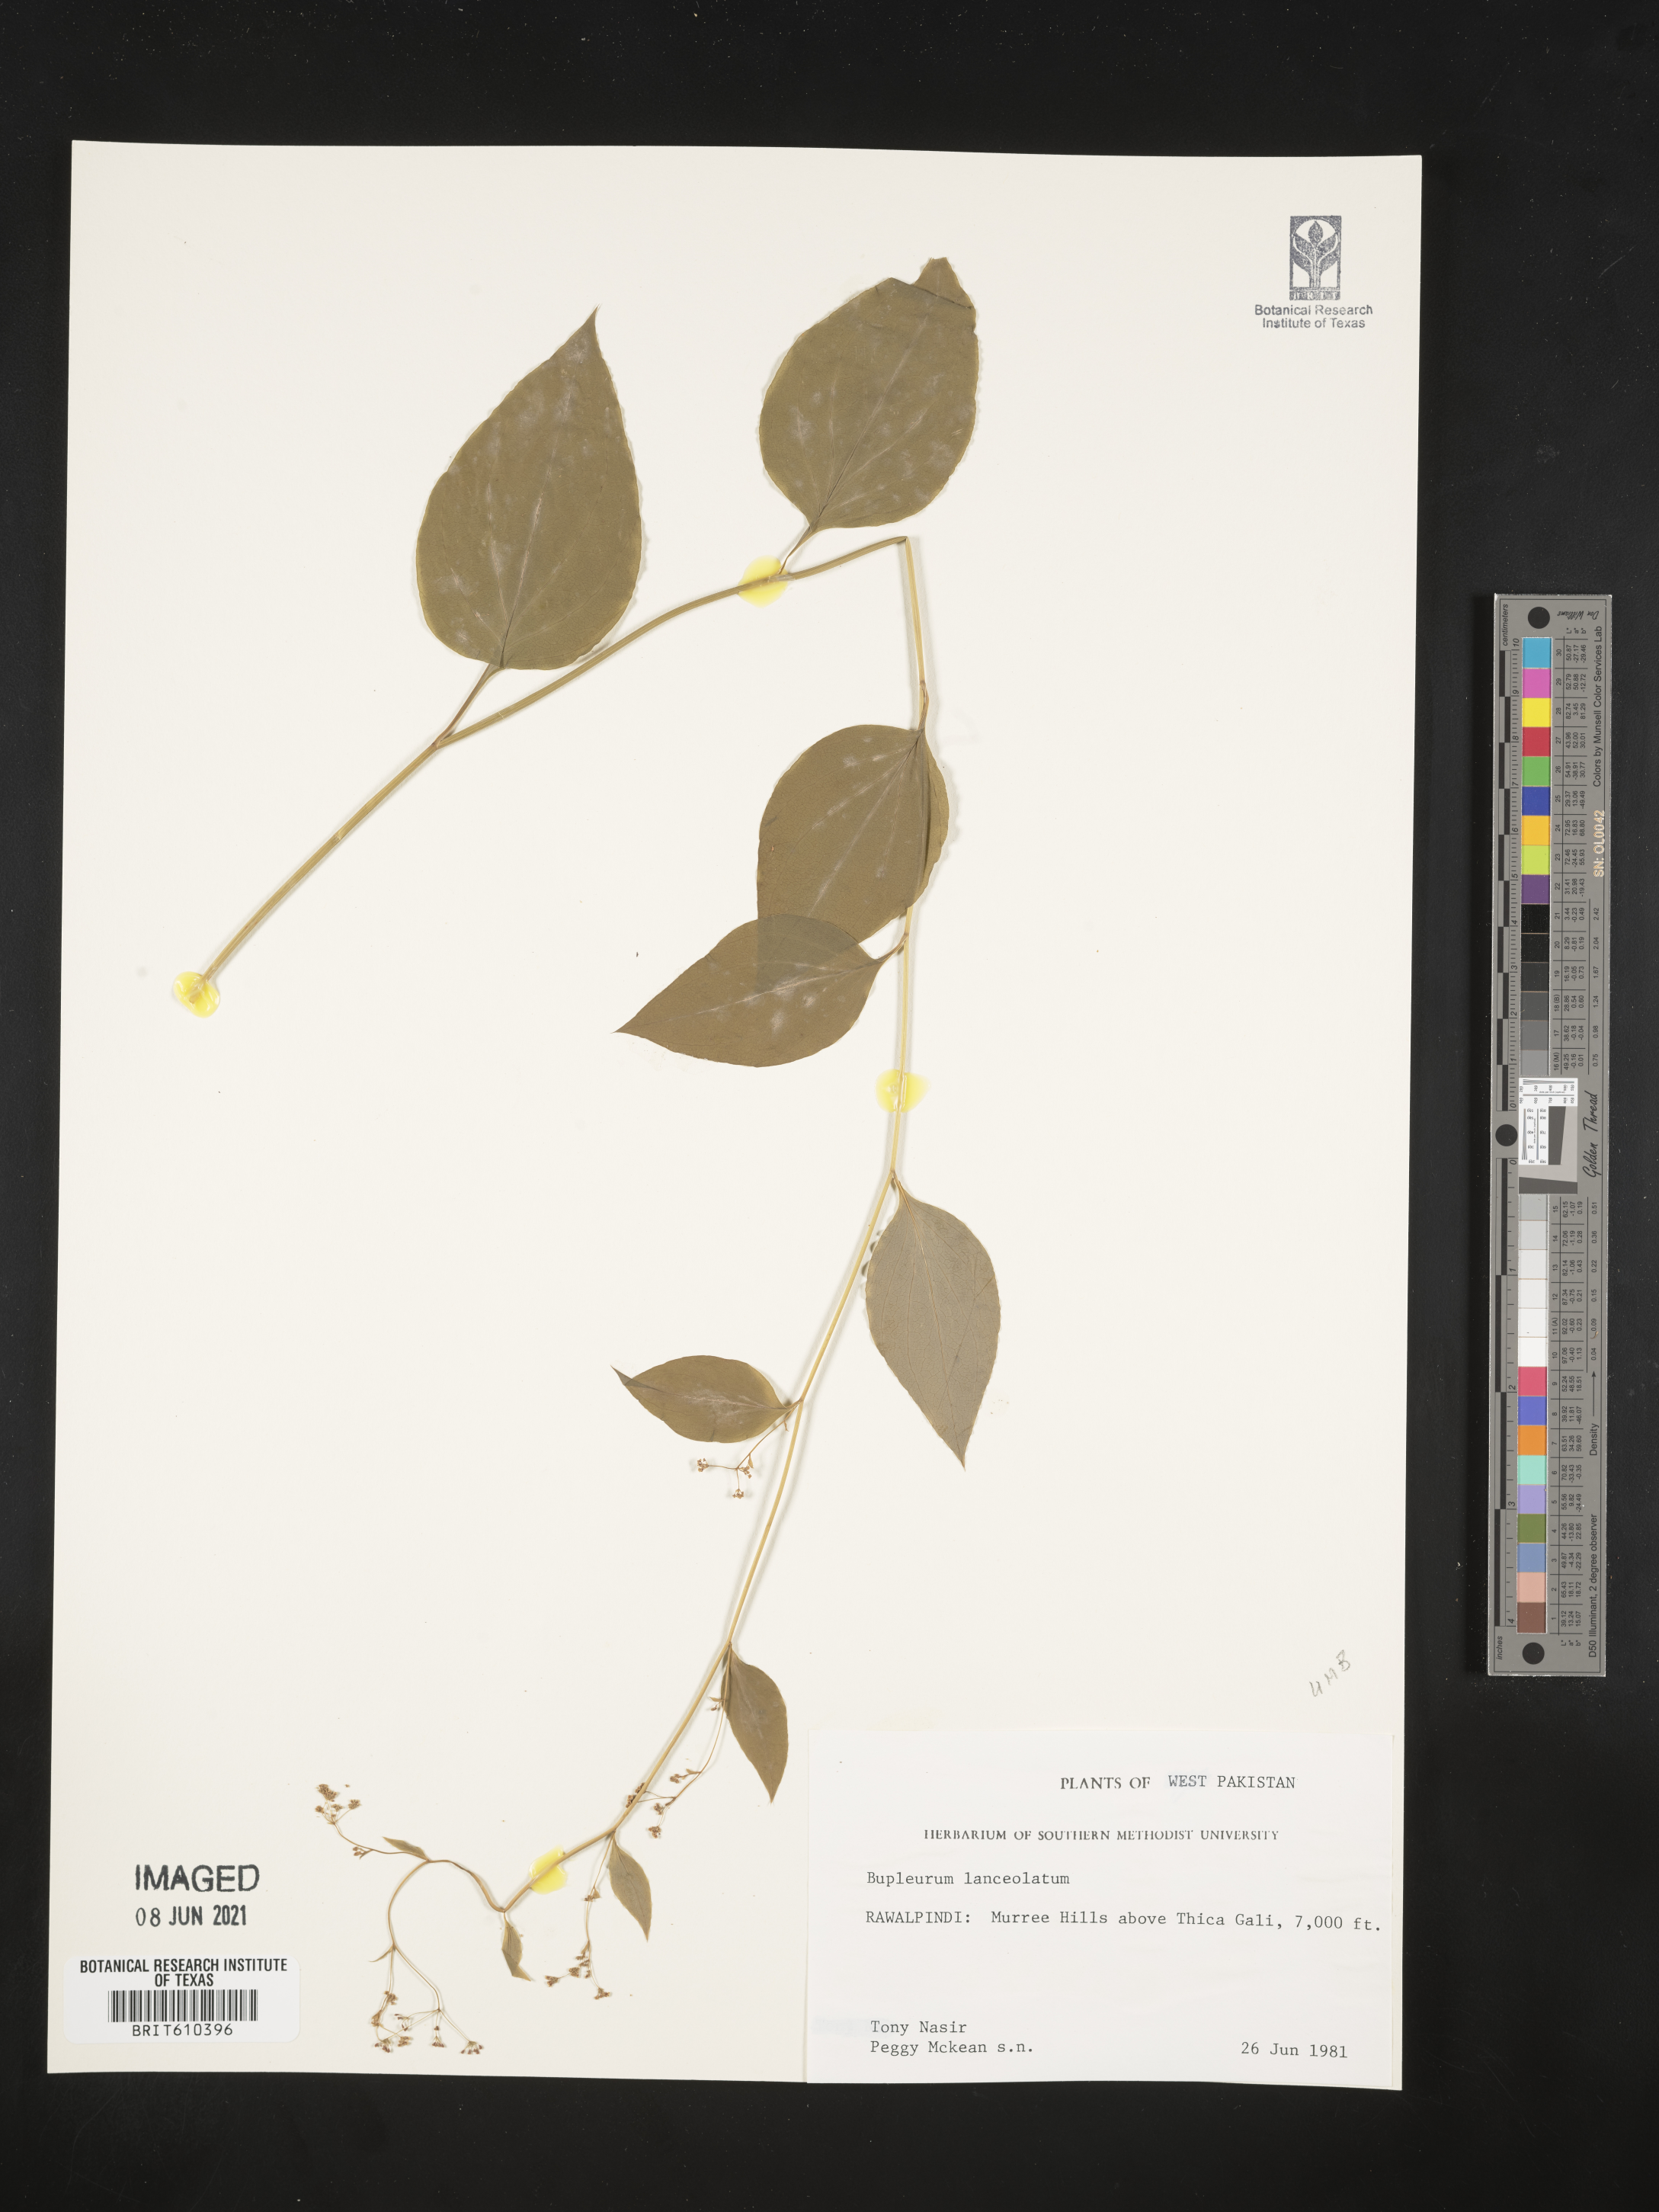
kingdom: Plantae
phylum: Tracheophyta
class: Magnoliopsida
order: Apiales
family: Apiaceae
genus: Bupleurum
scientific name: Bupleurum lanceolatum
